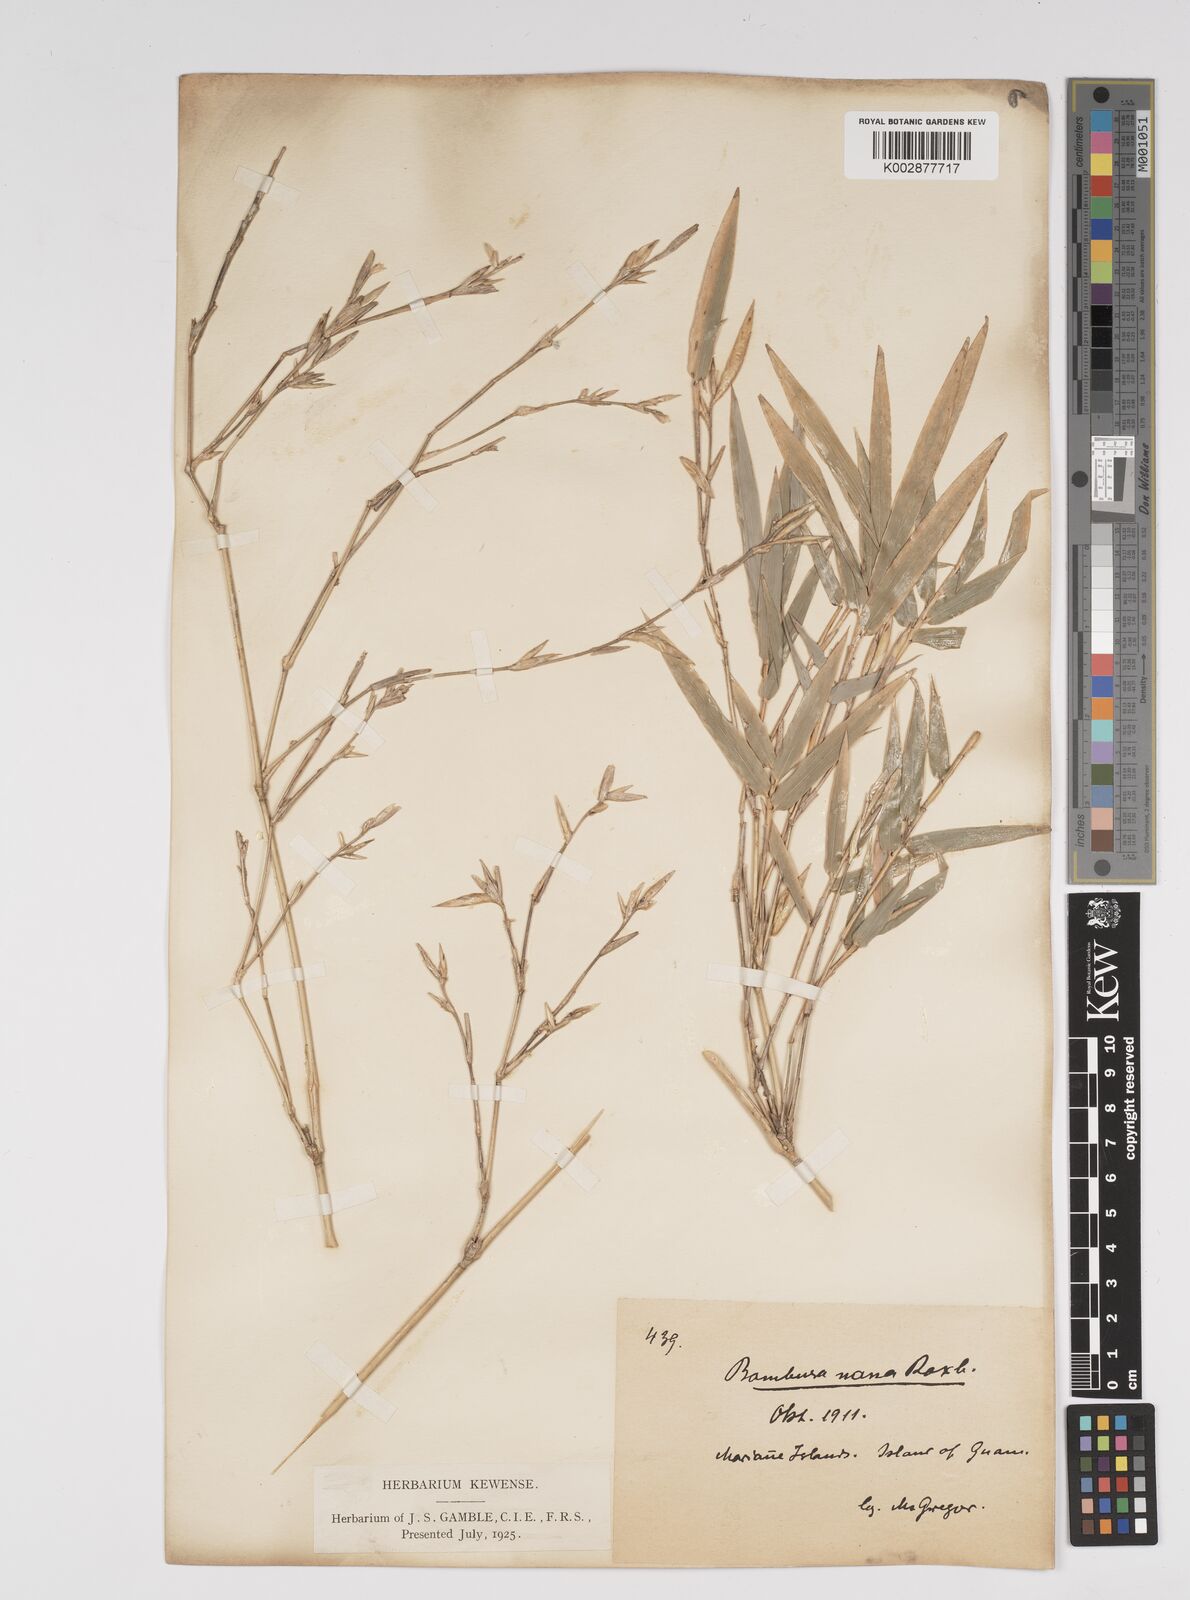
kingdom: Plantae
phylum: Tracheophyta
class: Liliopsida
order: Poales
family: Poaceae
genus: Bambusa
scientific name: Bambusa multiplex
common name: Hedge bamboo
